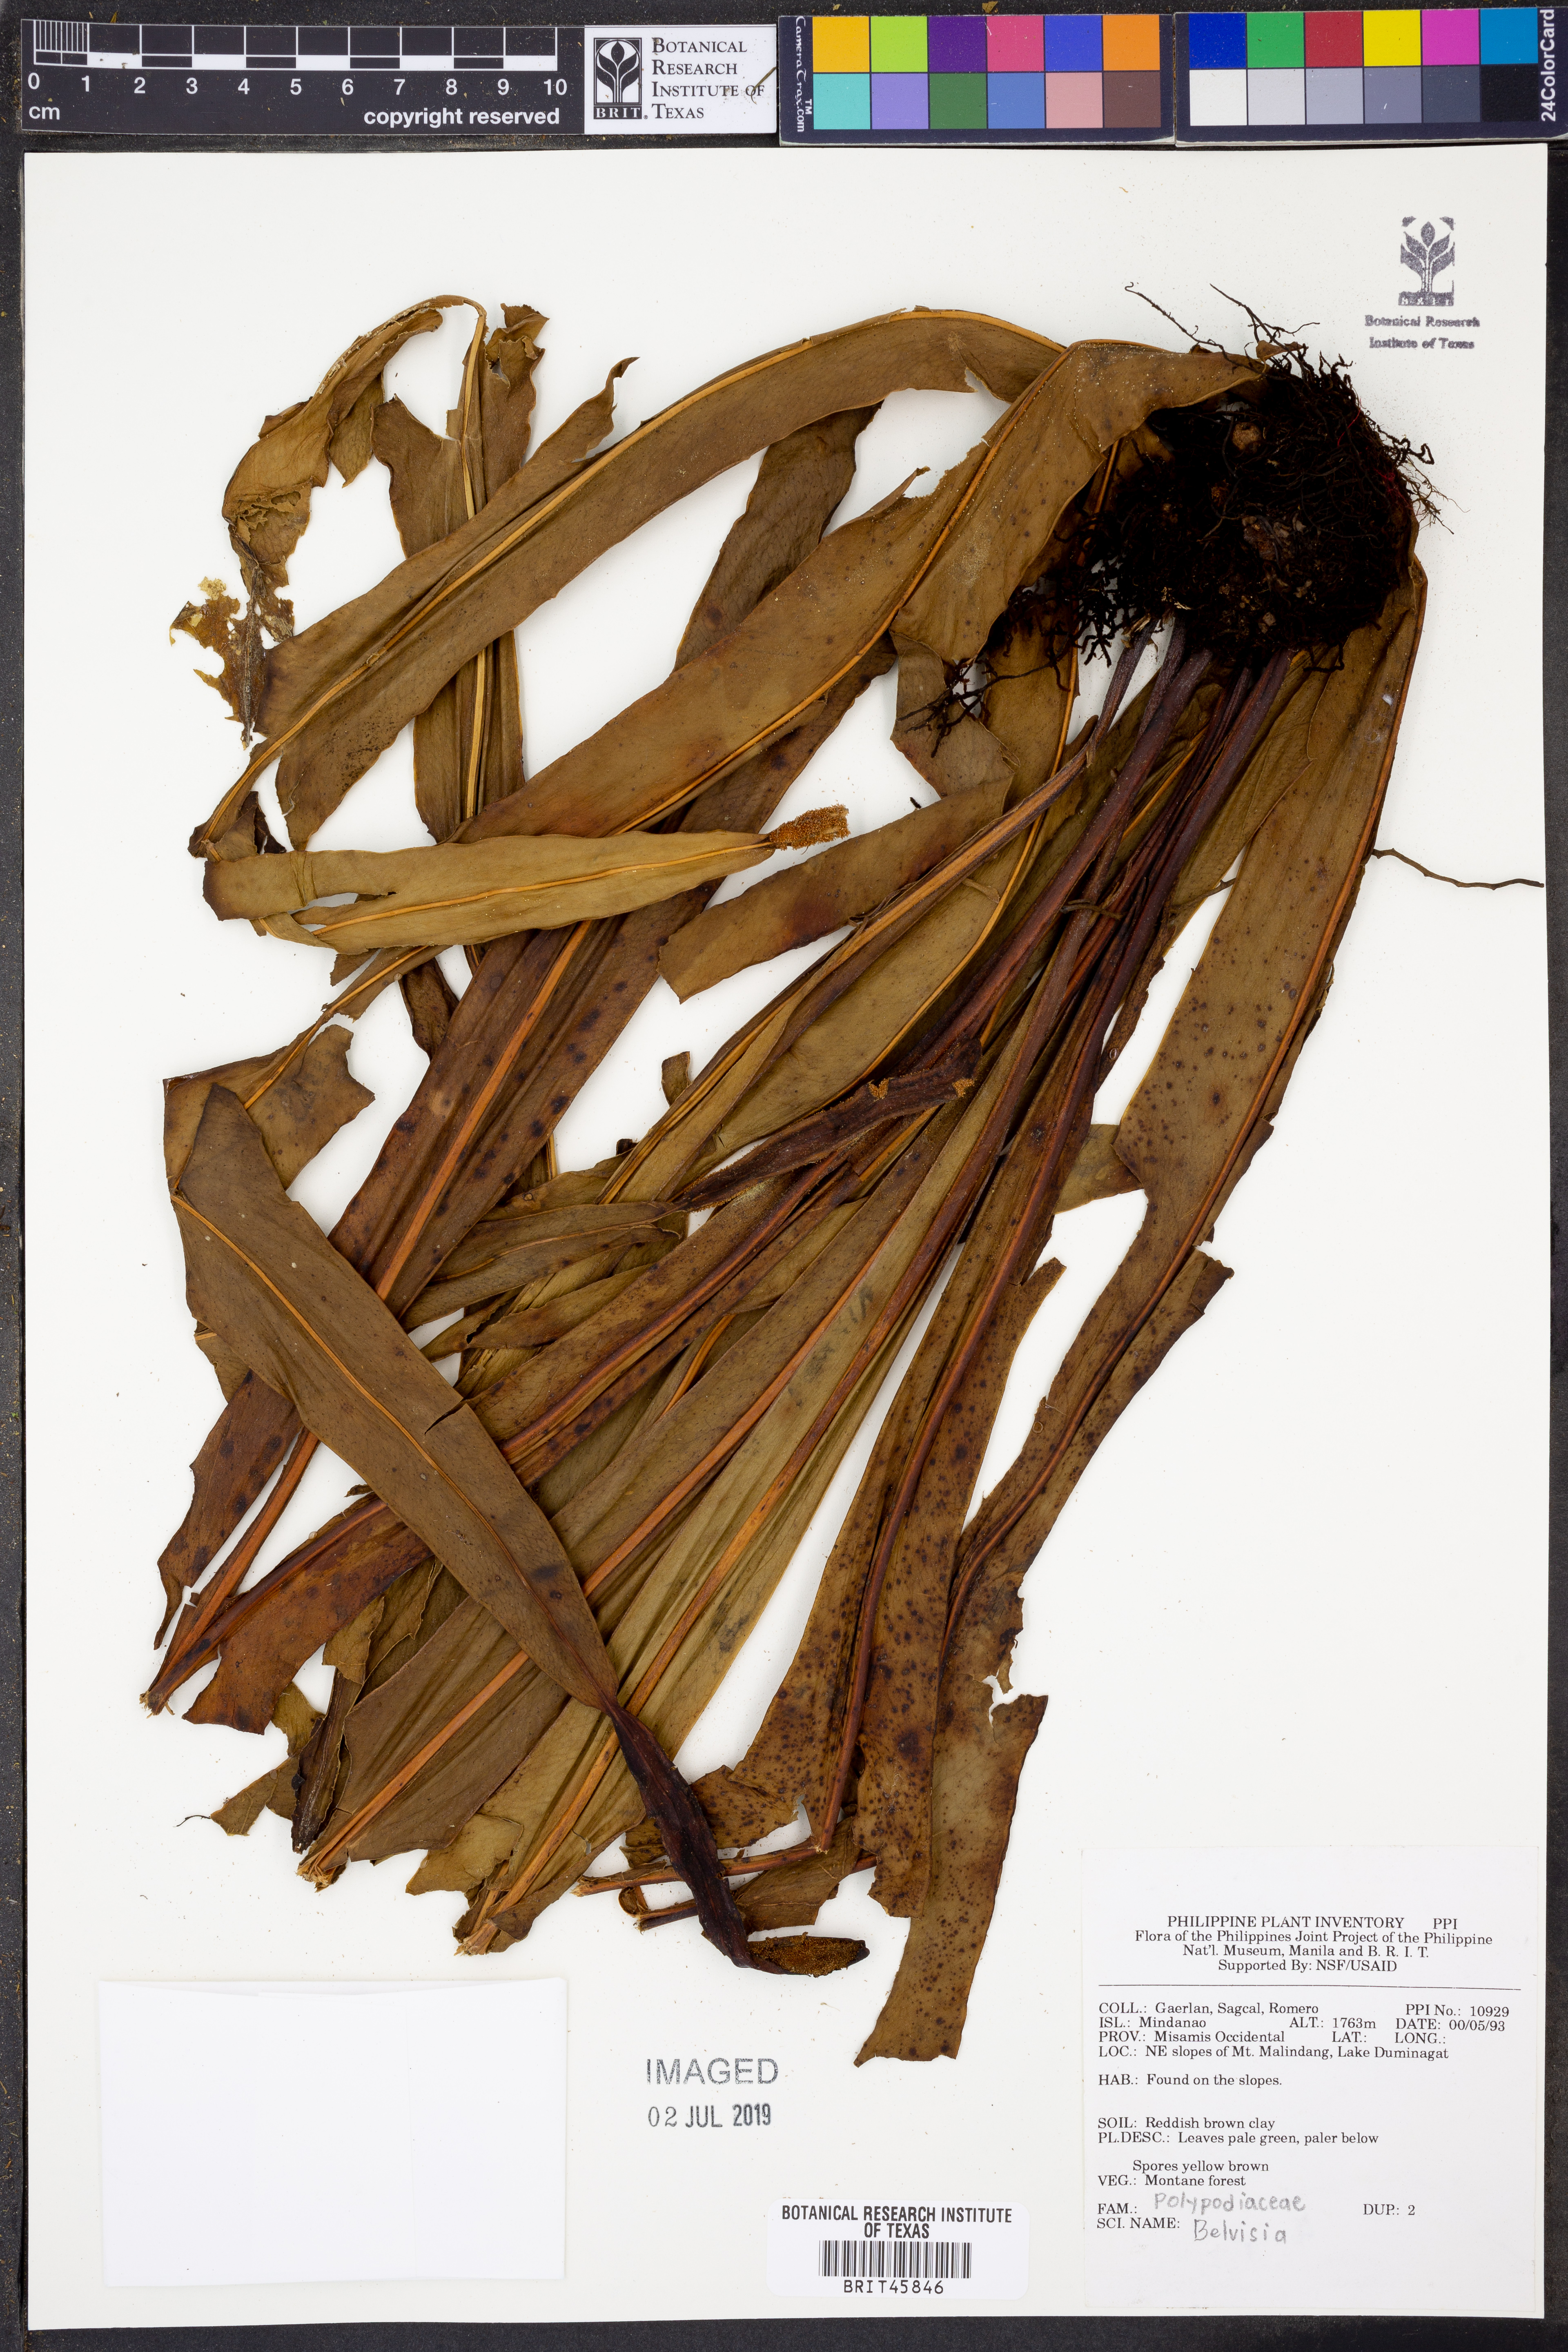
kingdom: Plantae
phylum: Tracheophyta
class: Polypodiopsida
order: Polypodiales
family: Polypodiaceae
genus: Lepisorus
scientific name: Lepisorus
